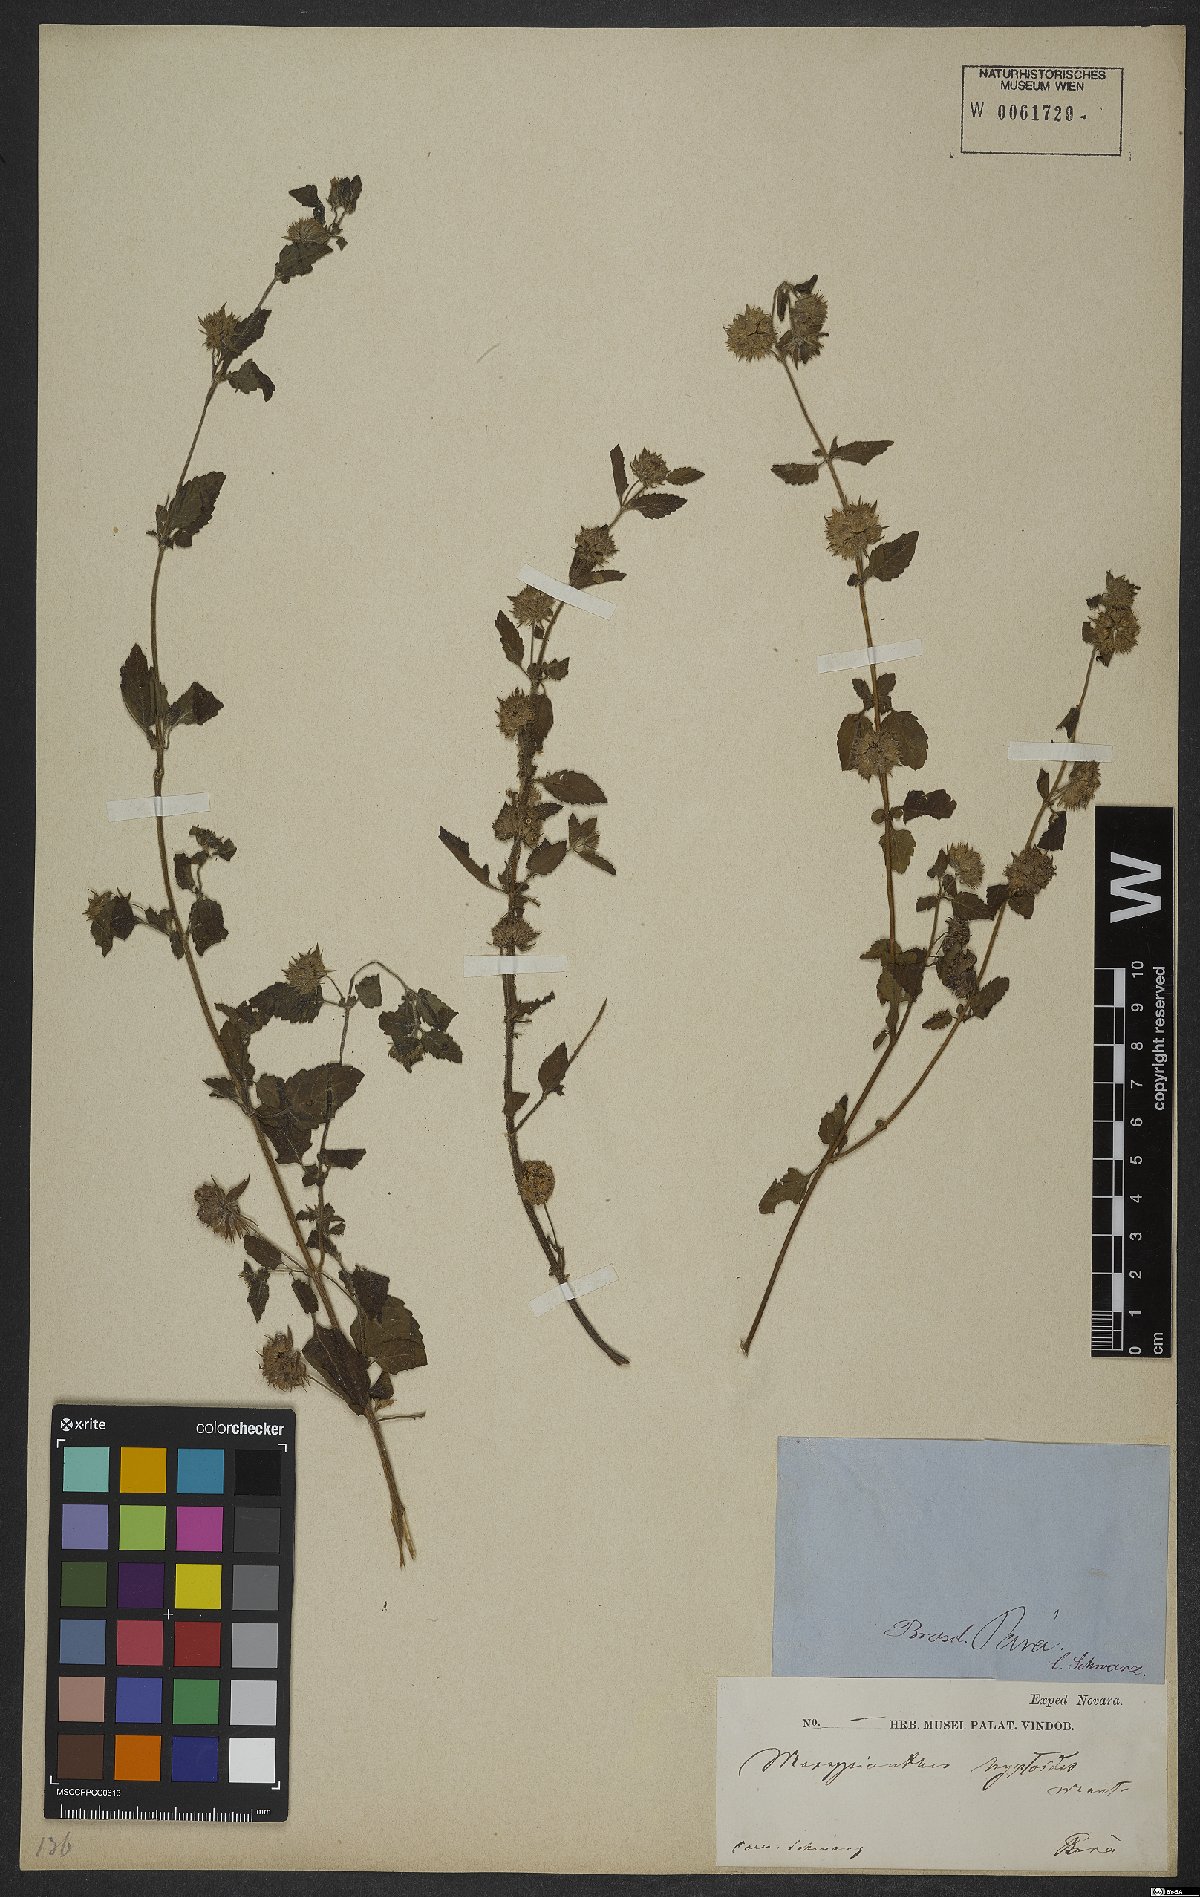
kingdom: Plantae
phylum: Tracheophyta
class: Magnoliopsida
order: Lamiales
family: Lamiaceae
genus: Marsypianthes
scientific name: Marsypianthes chamaedrys
